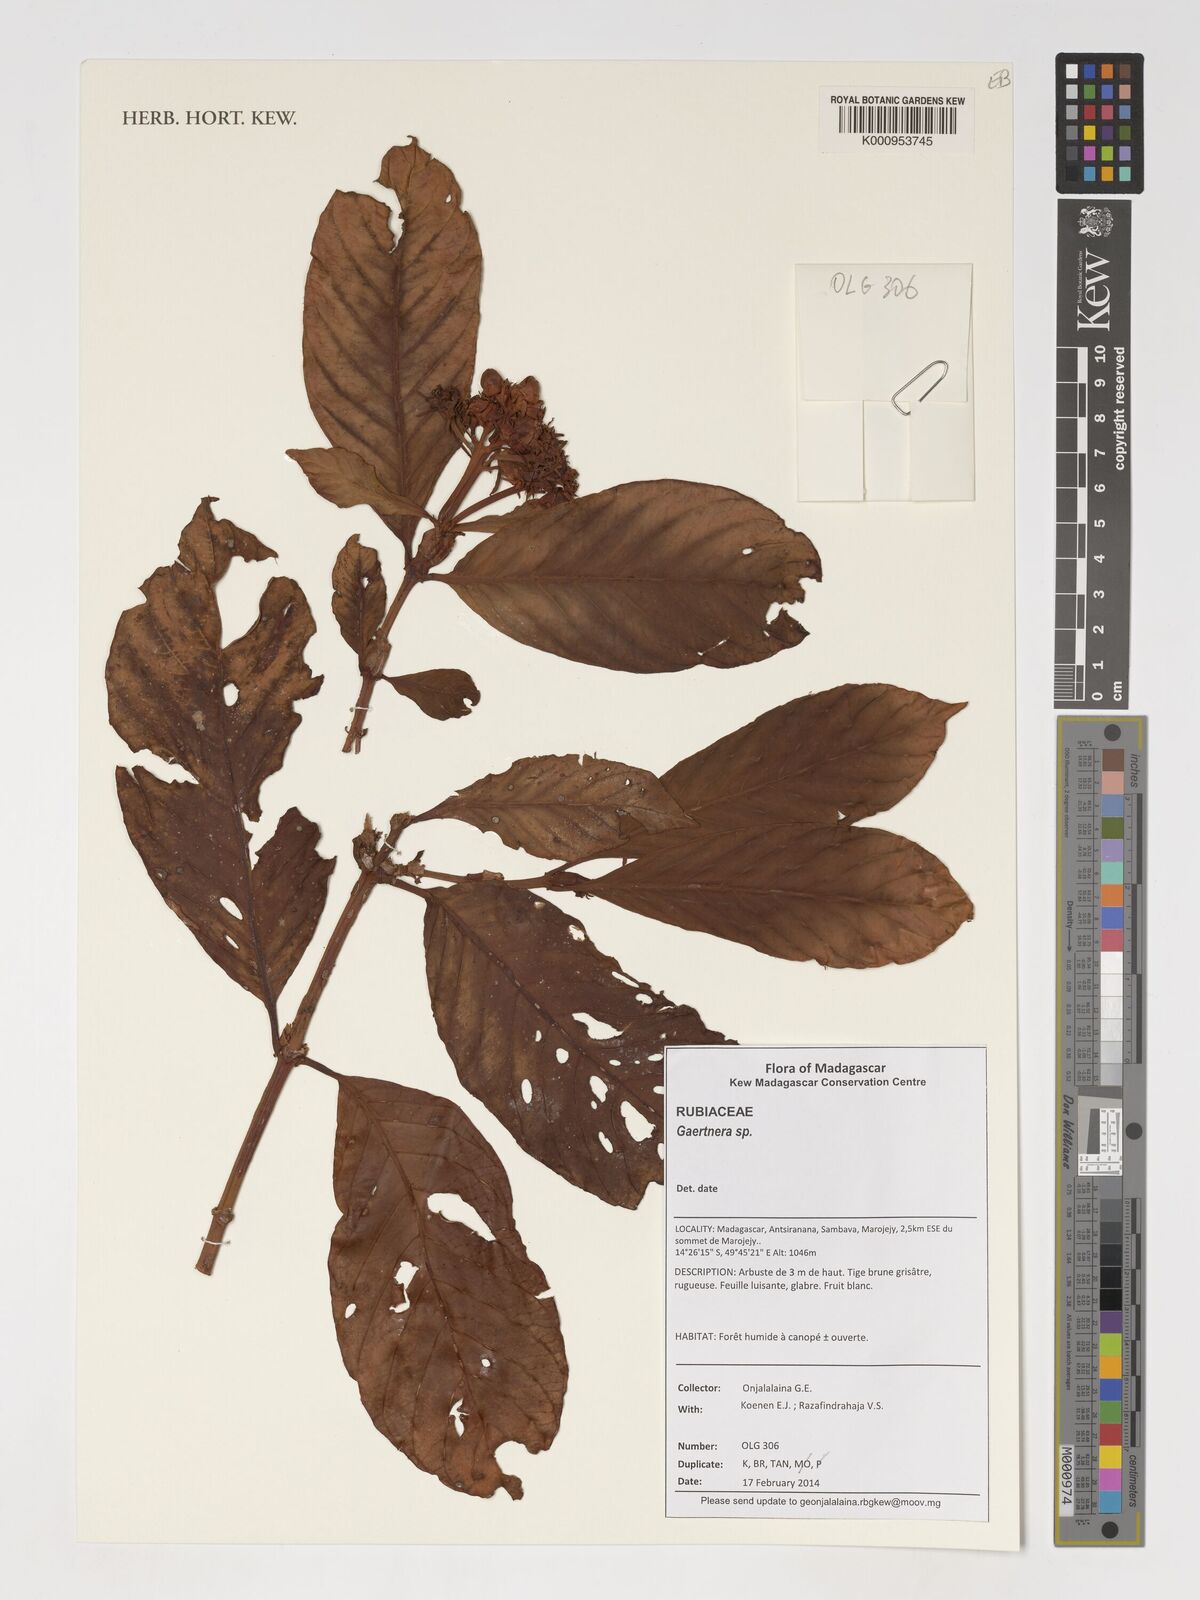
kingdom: Plantae
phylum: Tracheophyta
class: Magnoliopsida
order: Gentianales
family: Rubiaceae
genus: Gaertnera
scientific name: Gaertnera
